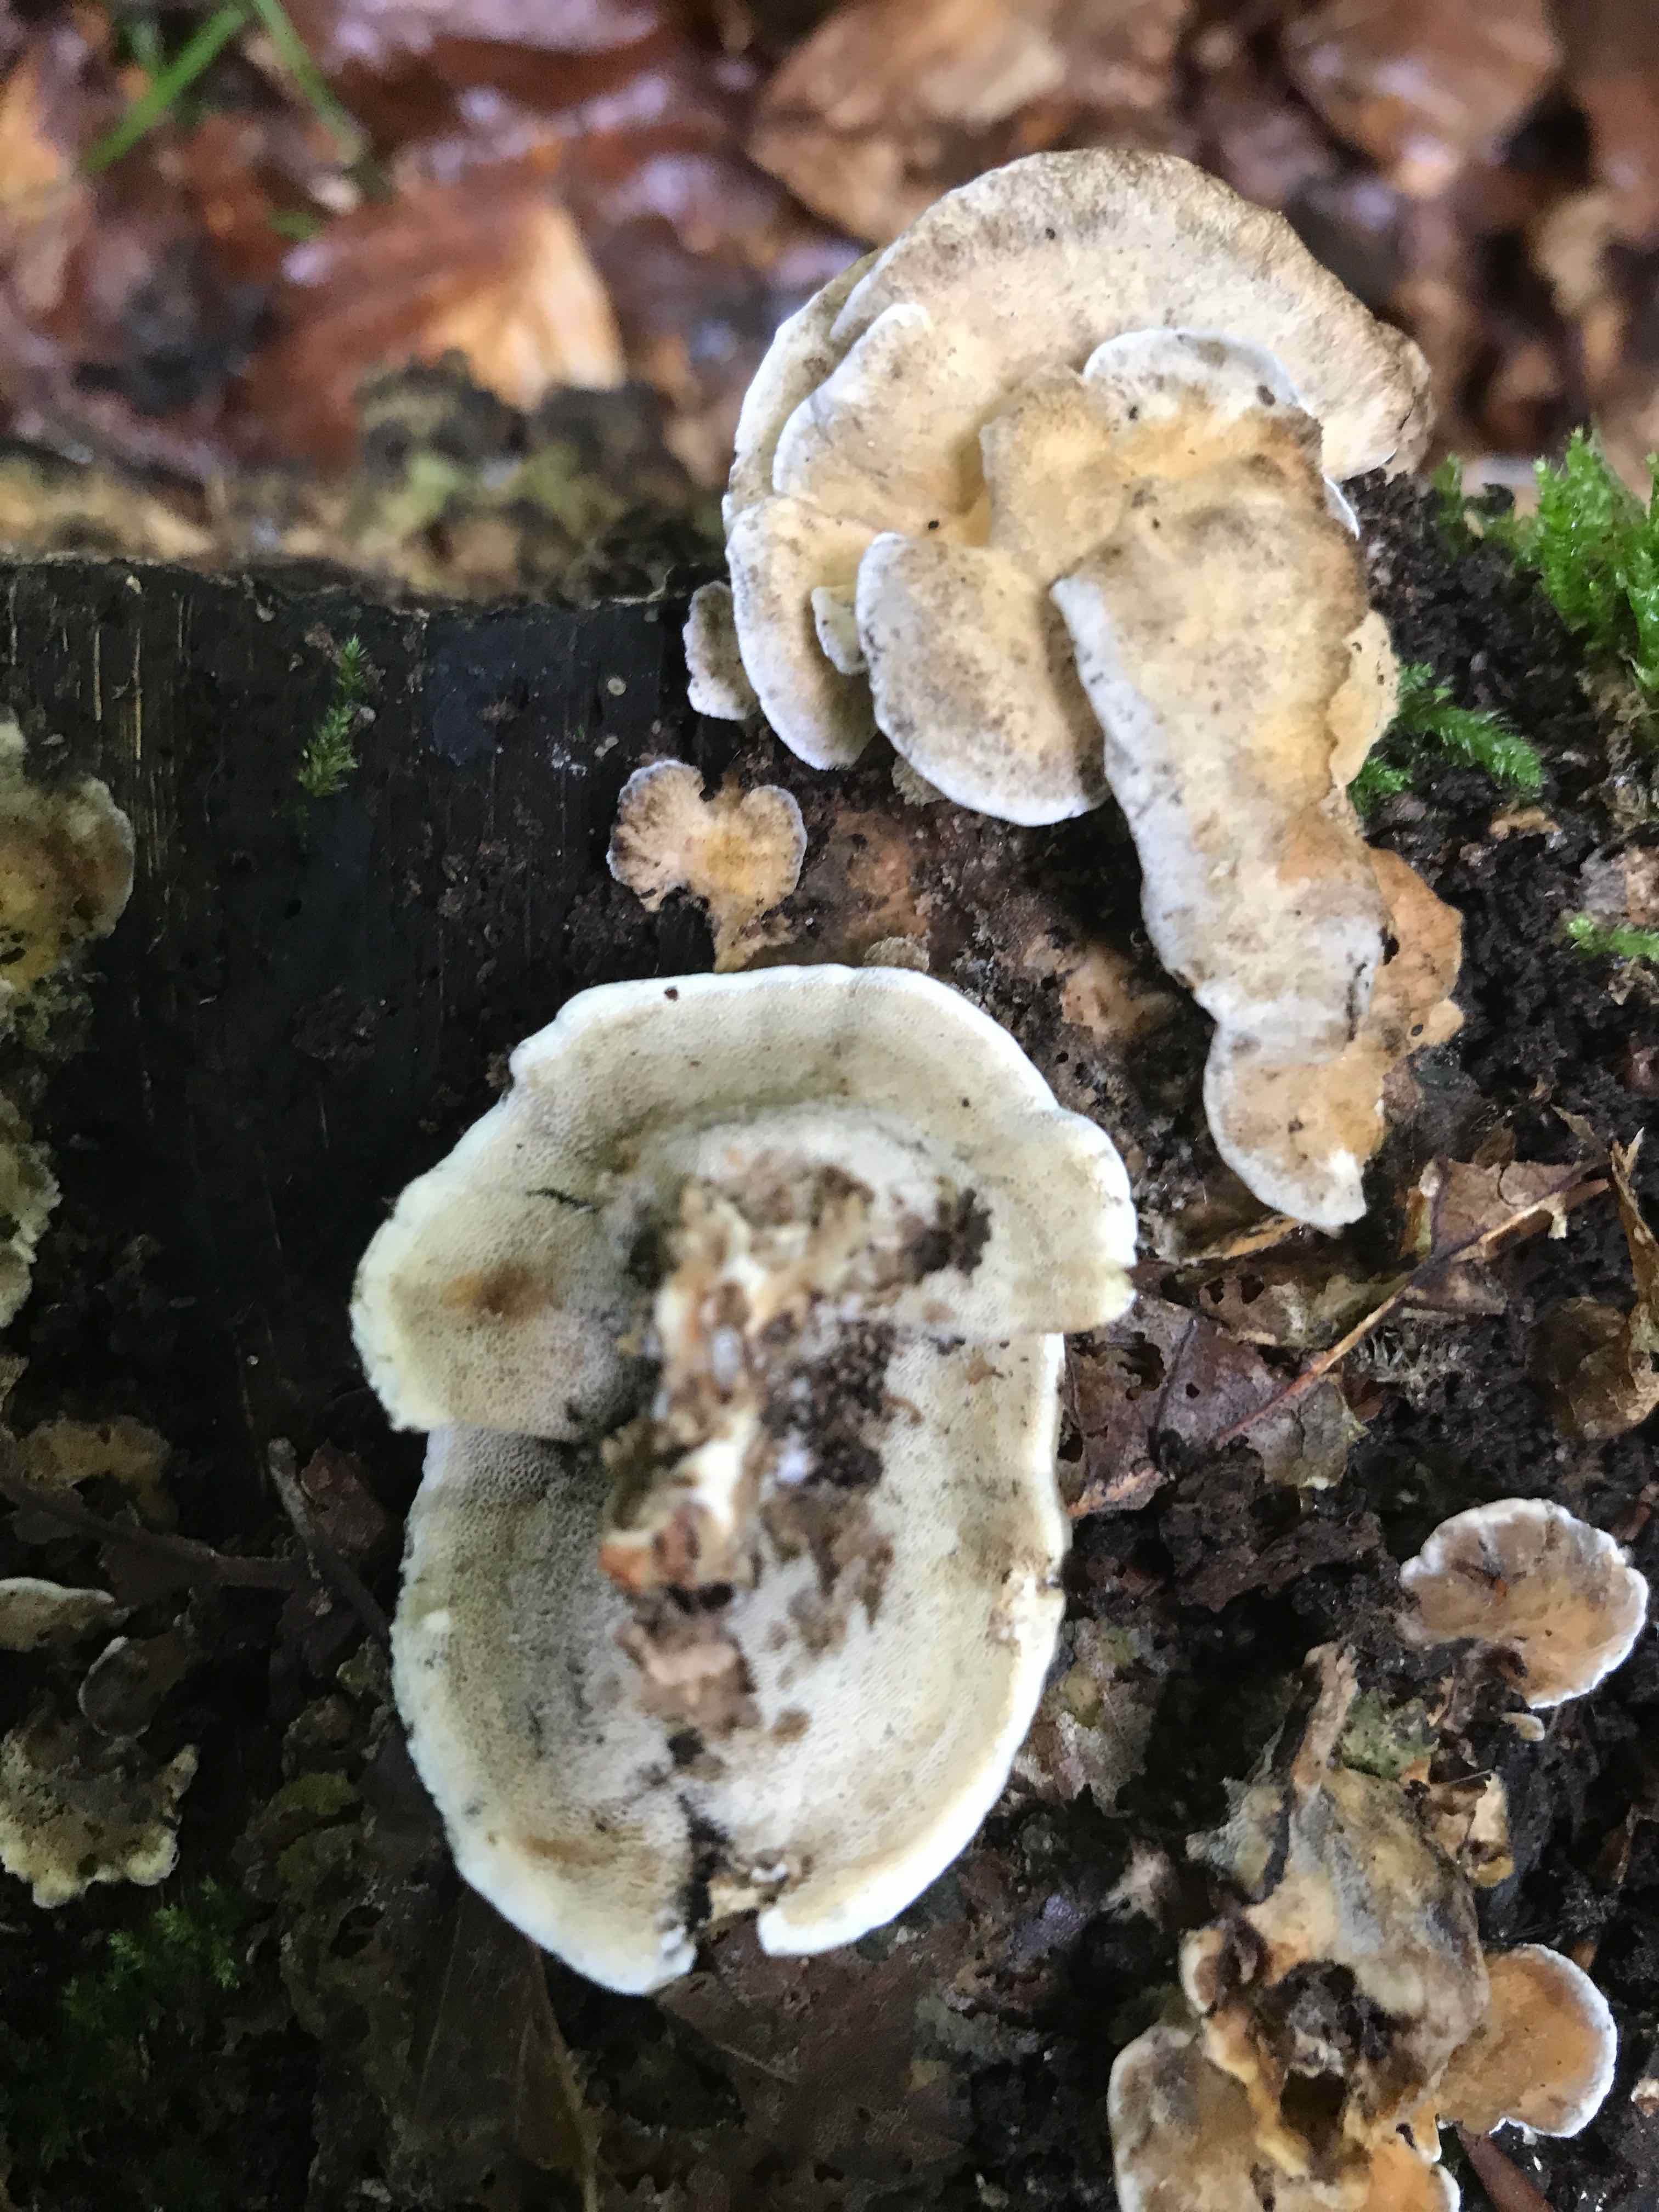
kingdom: Fungi
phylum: Basidiomycota
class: Agaricomycetes
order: Polyporales
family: Phanerochaetaceae
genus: Bjerkandera
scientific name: Bjerkandera adusta
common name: sveden sodporesvamp
